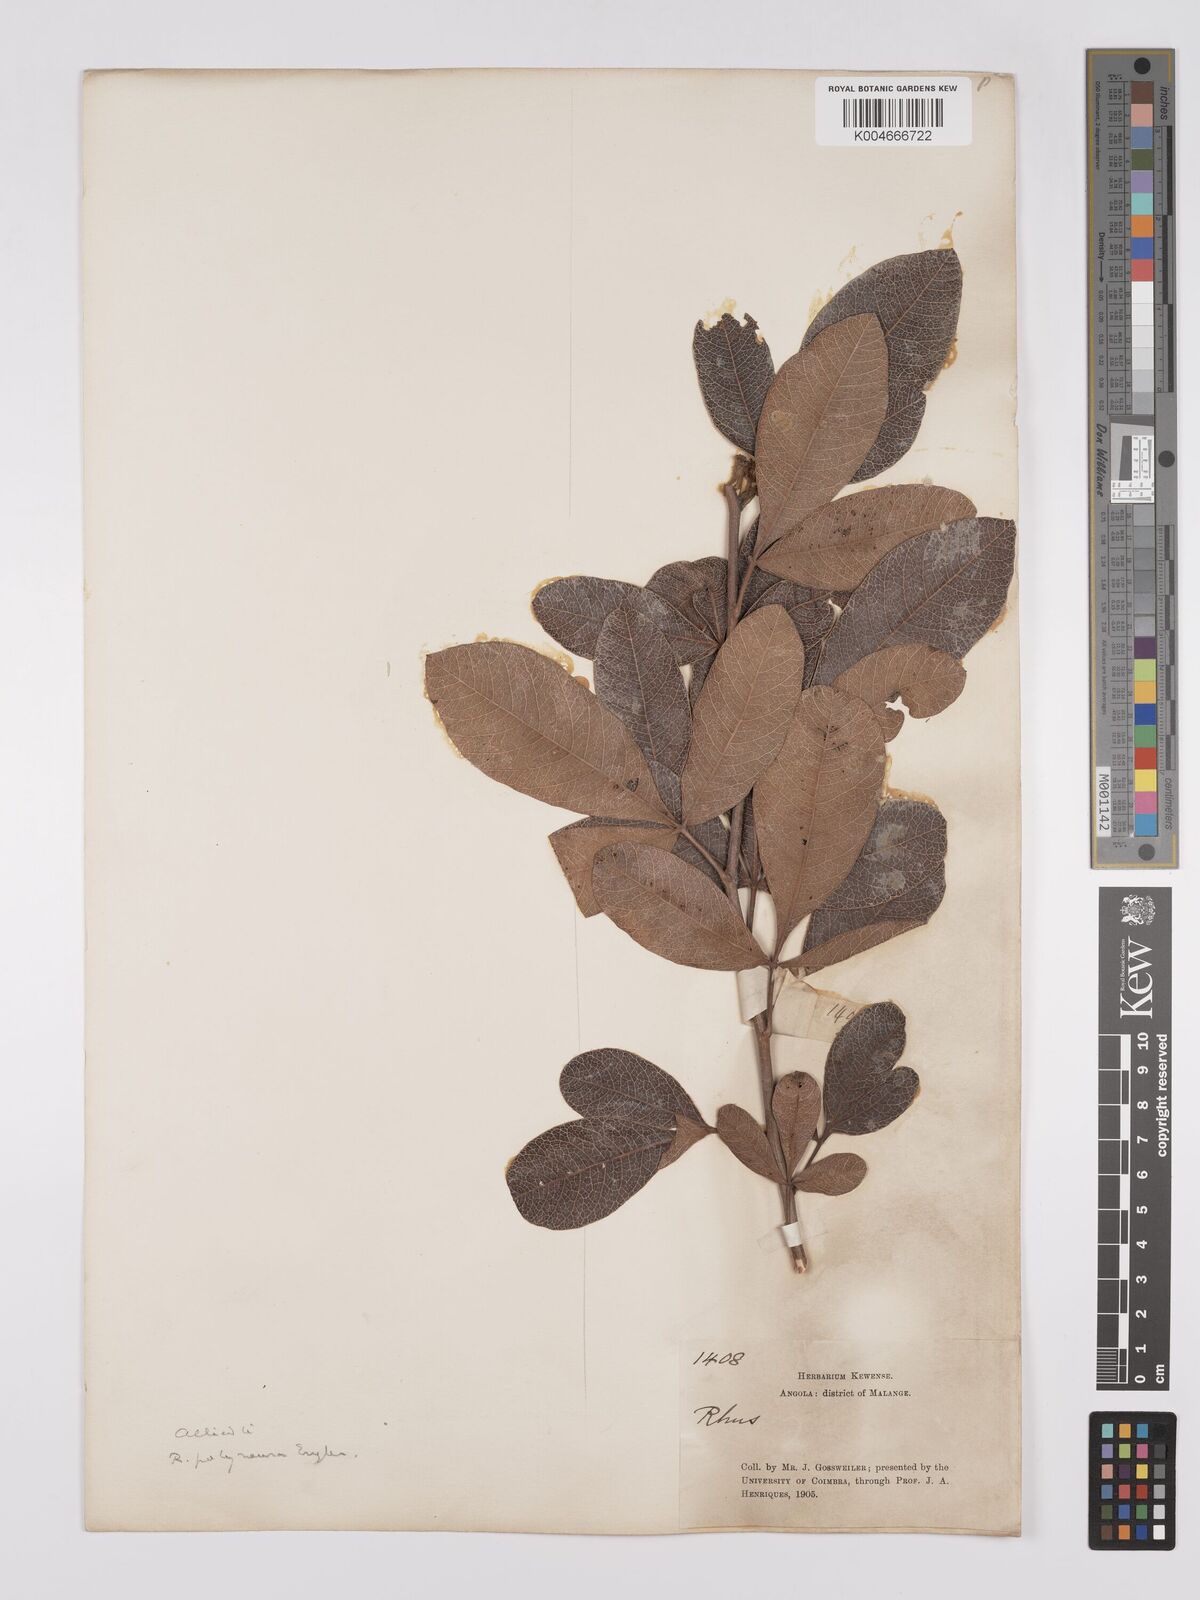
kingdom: Plantae
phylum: Tracheophyta
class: Magnoliopsida
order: Sapindales
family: Anacardiaceae
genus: Searsia
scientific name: Searsia kirkii
